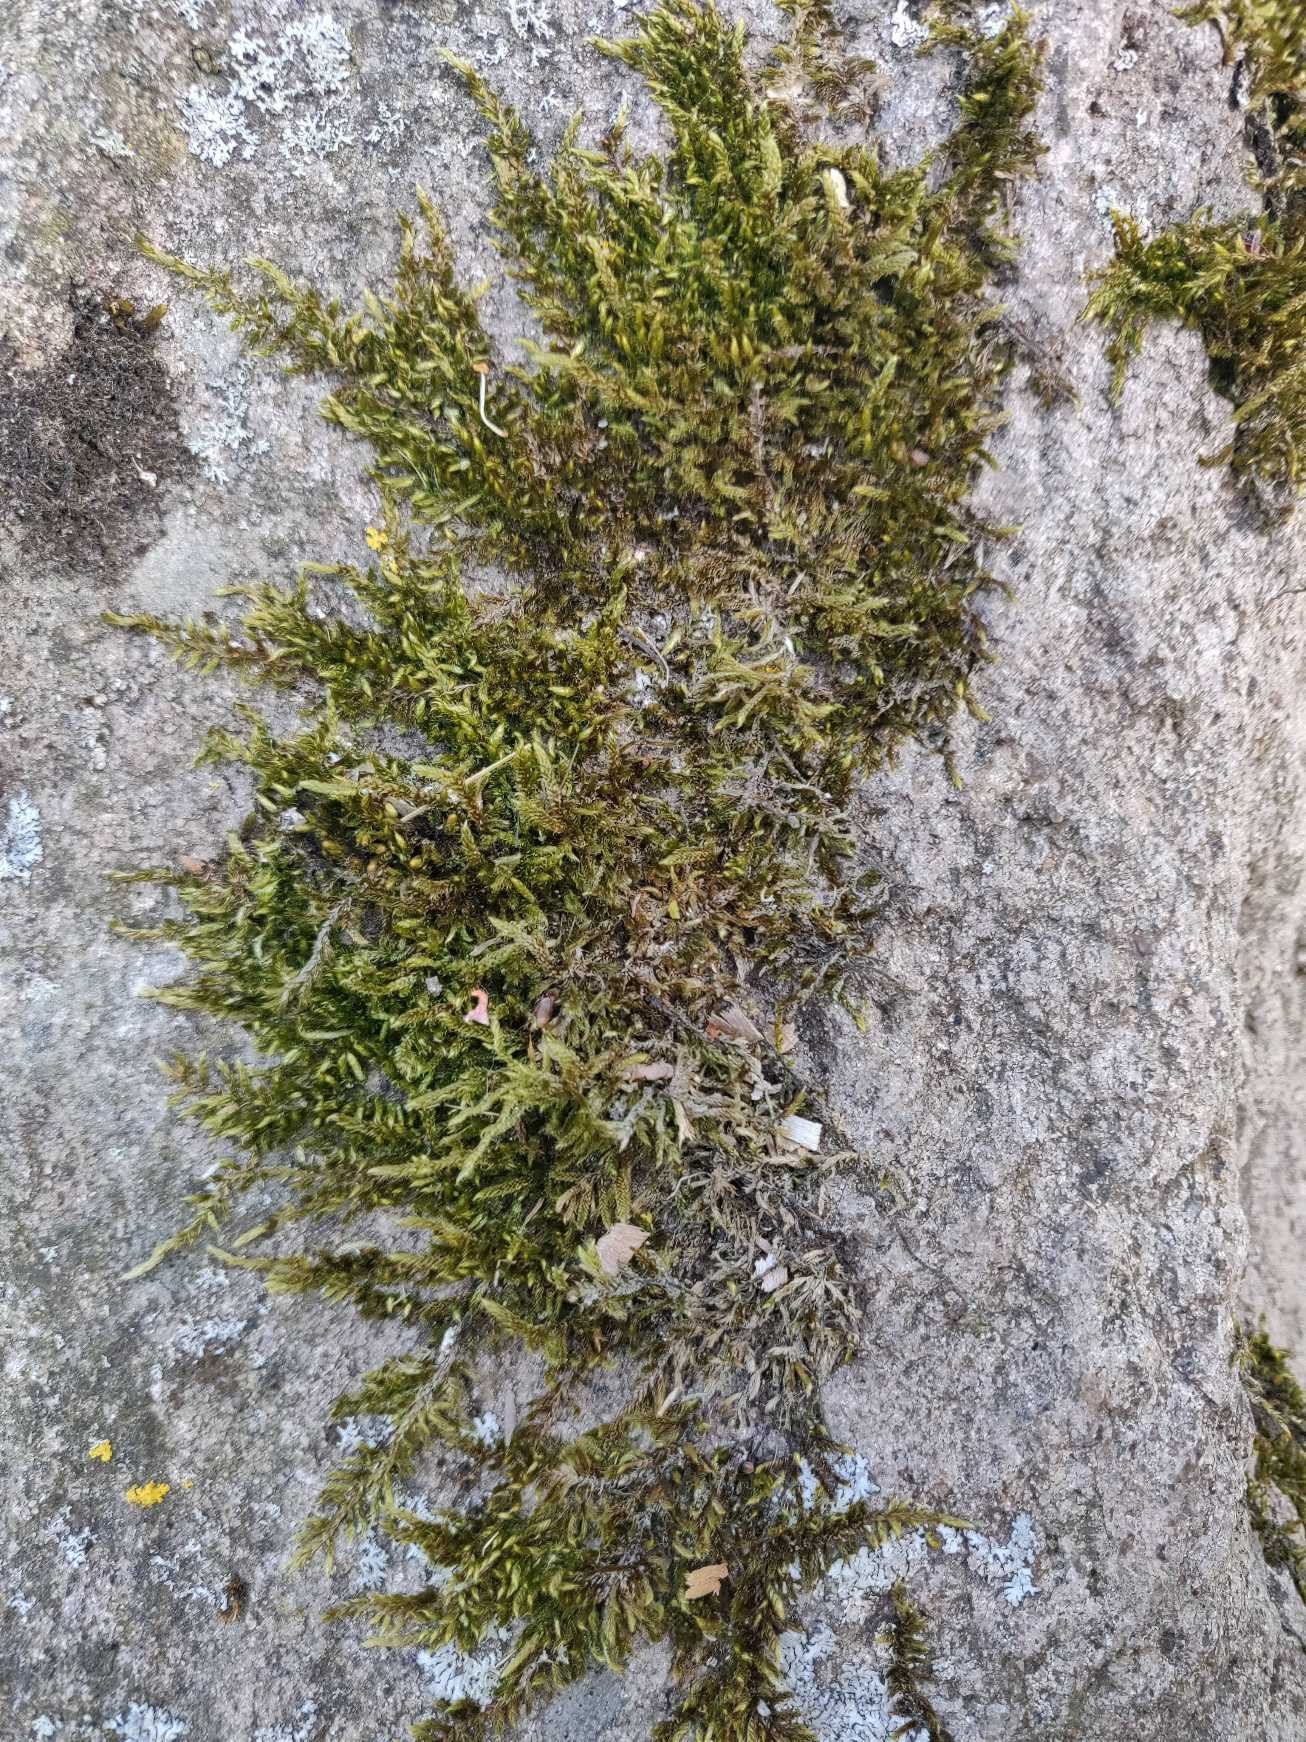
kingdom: Plantae
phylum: Bryophyta
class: Bryopsida
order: Hypnales
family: Hypnaceae
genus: Hypnum
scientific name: Hypnum cupressiforme
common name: Almindelig cypresmos
